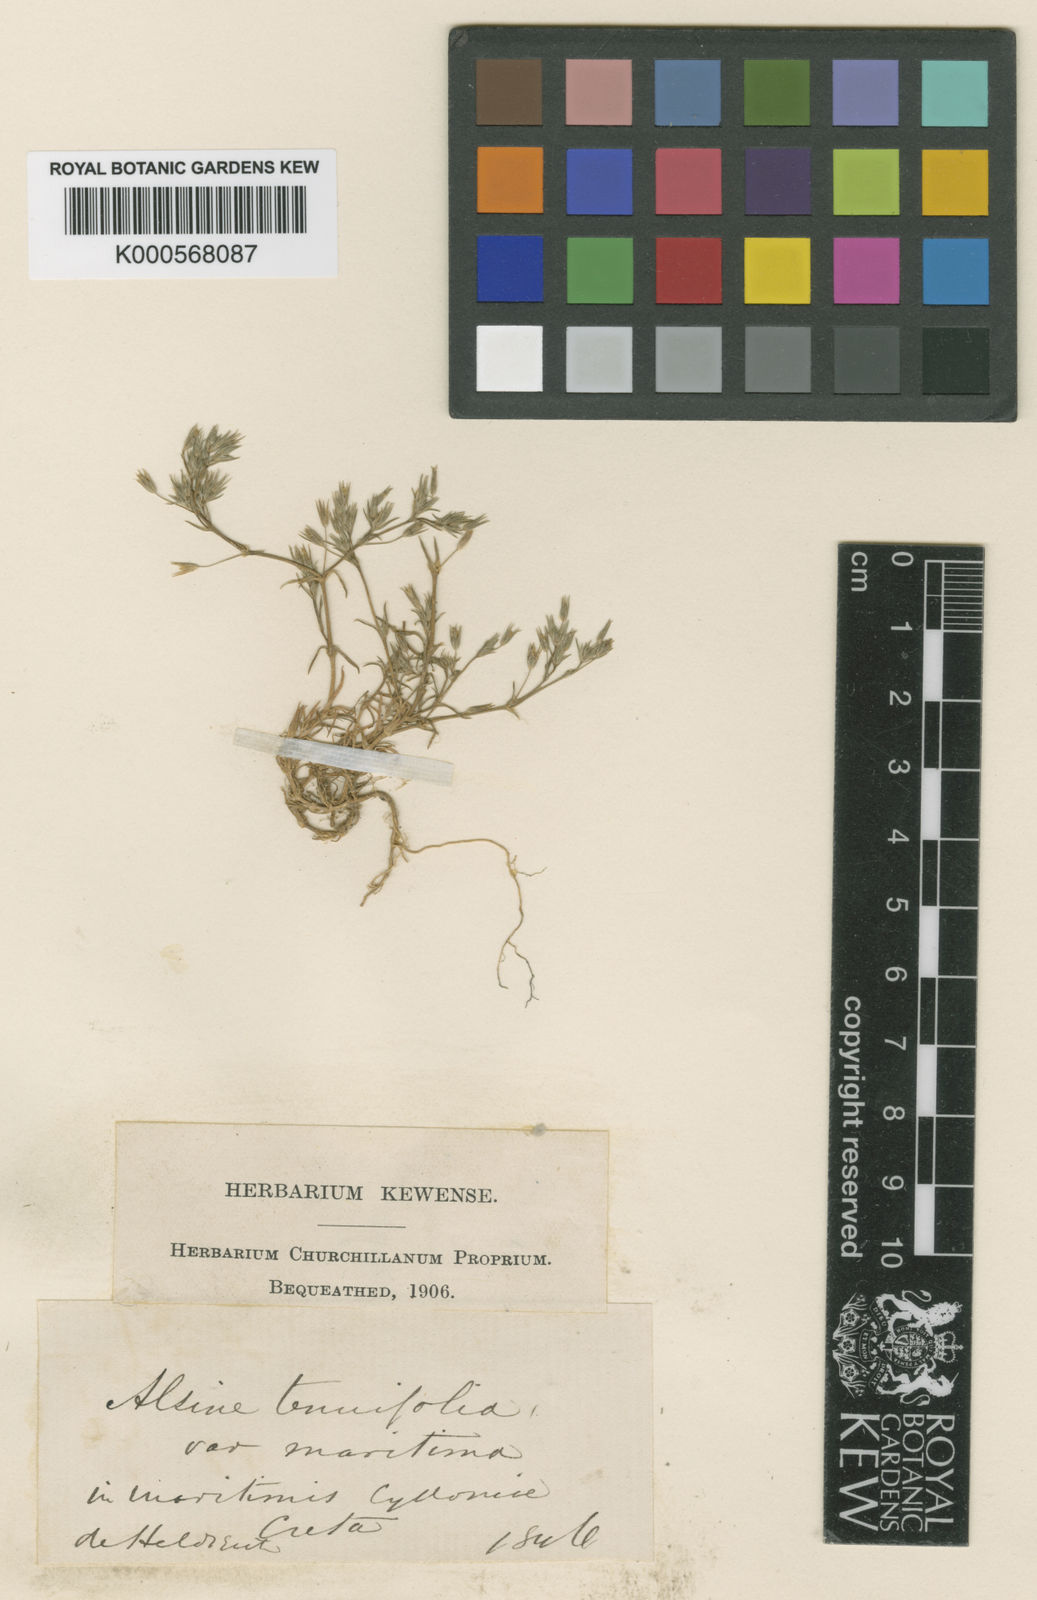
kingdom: Plantae
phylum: Tracheophyta
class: Magnoliopsida
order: Caryophyllales
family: Caryophyllaceae
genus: Minuartia
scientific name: Minuartia
